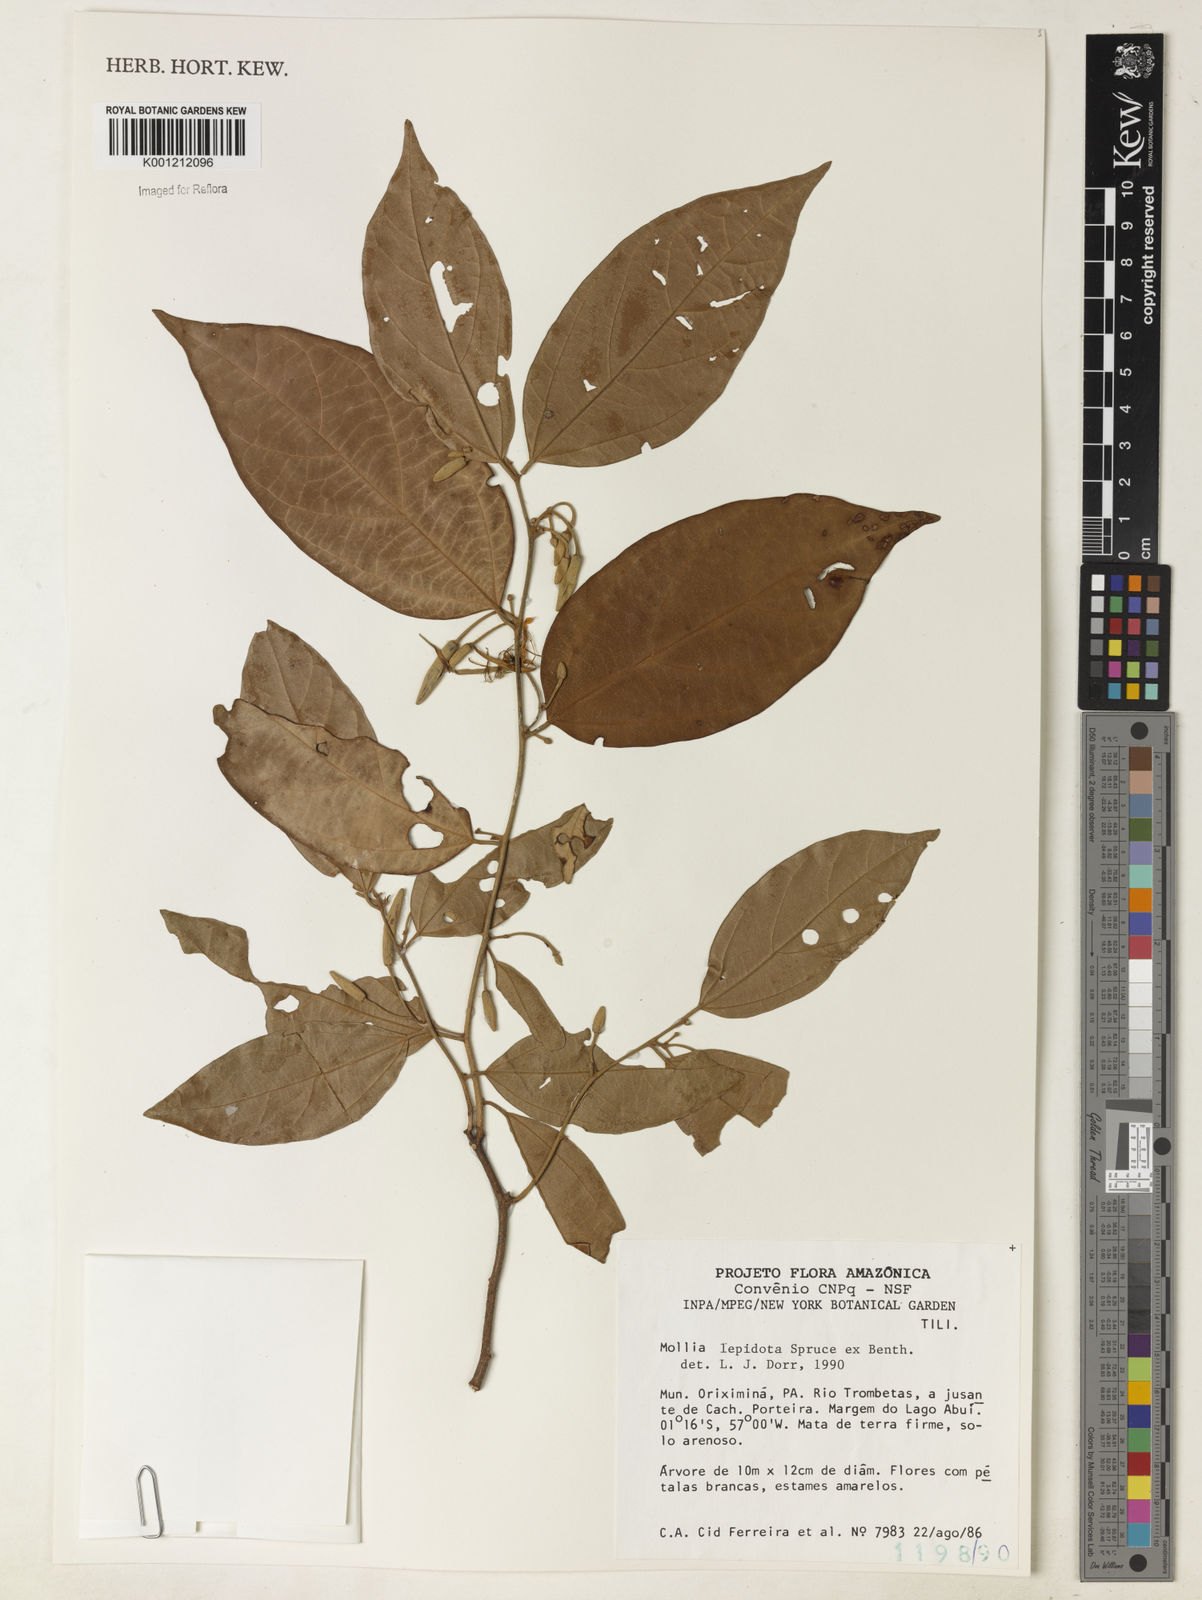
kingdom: Plantae
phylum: Tracheophyta
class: Magnoliopsida
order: Malvales
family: Malvaceae
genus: Mollia
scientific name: Mollia lepidota
